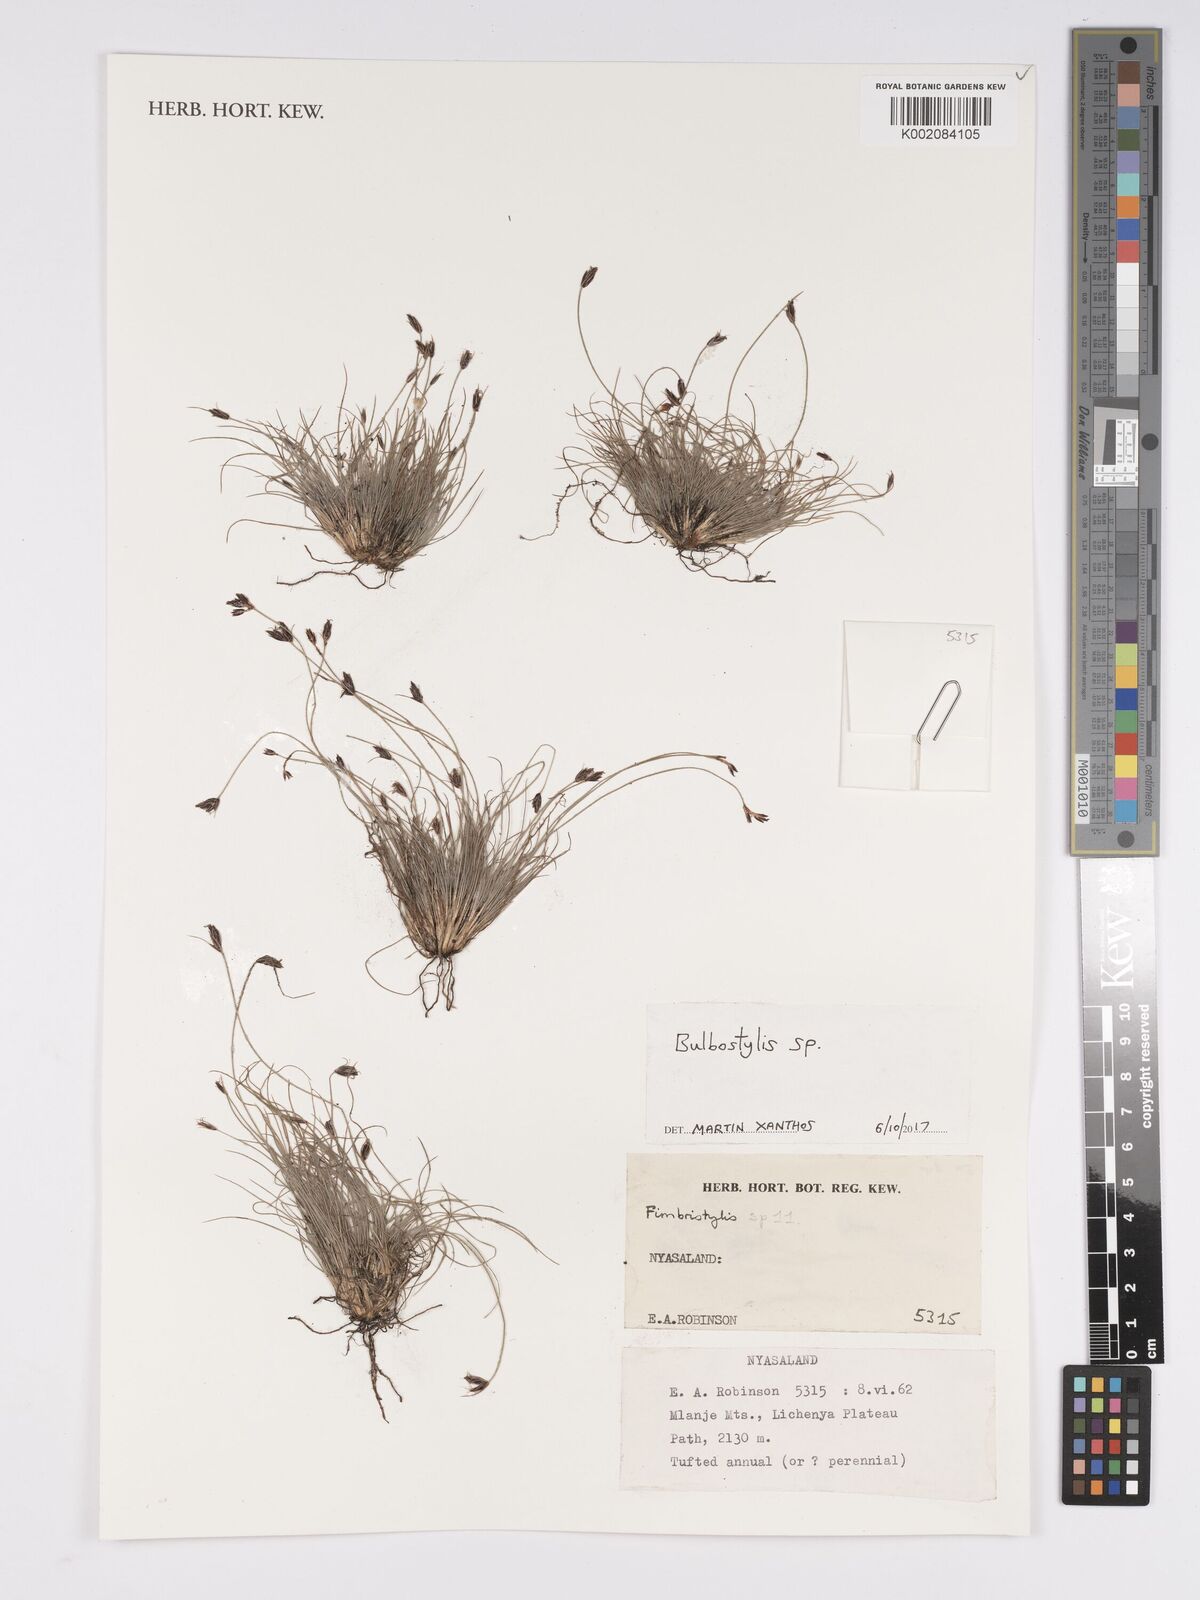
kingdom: Plantae
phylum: Tracheophyta
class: Liliopsida
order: Poales
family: Cyperaceae
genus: Bulbostylis
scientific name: Bulbostylis
